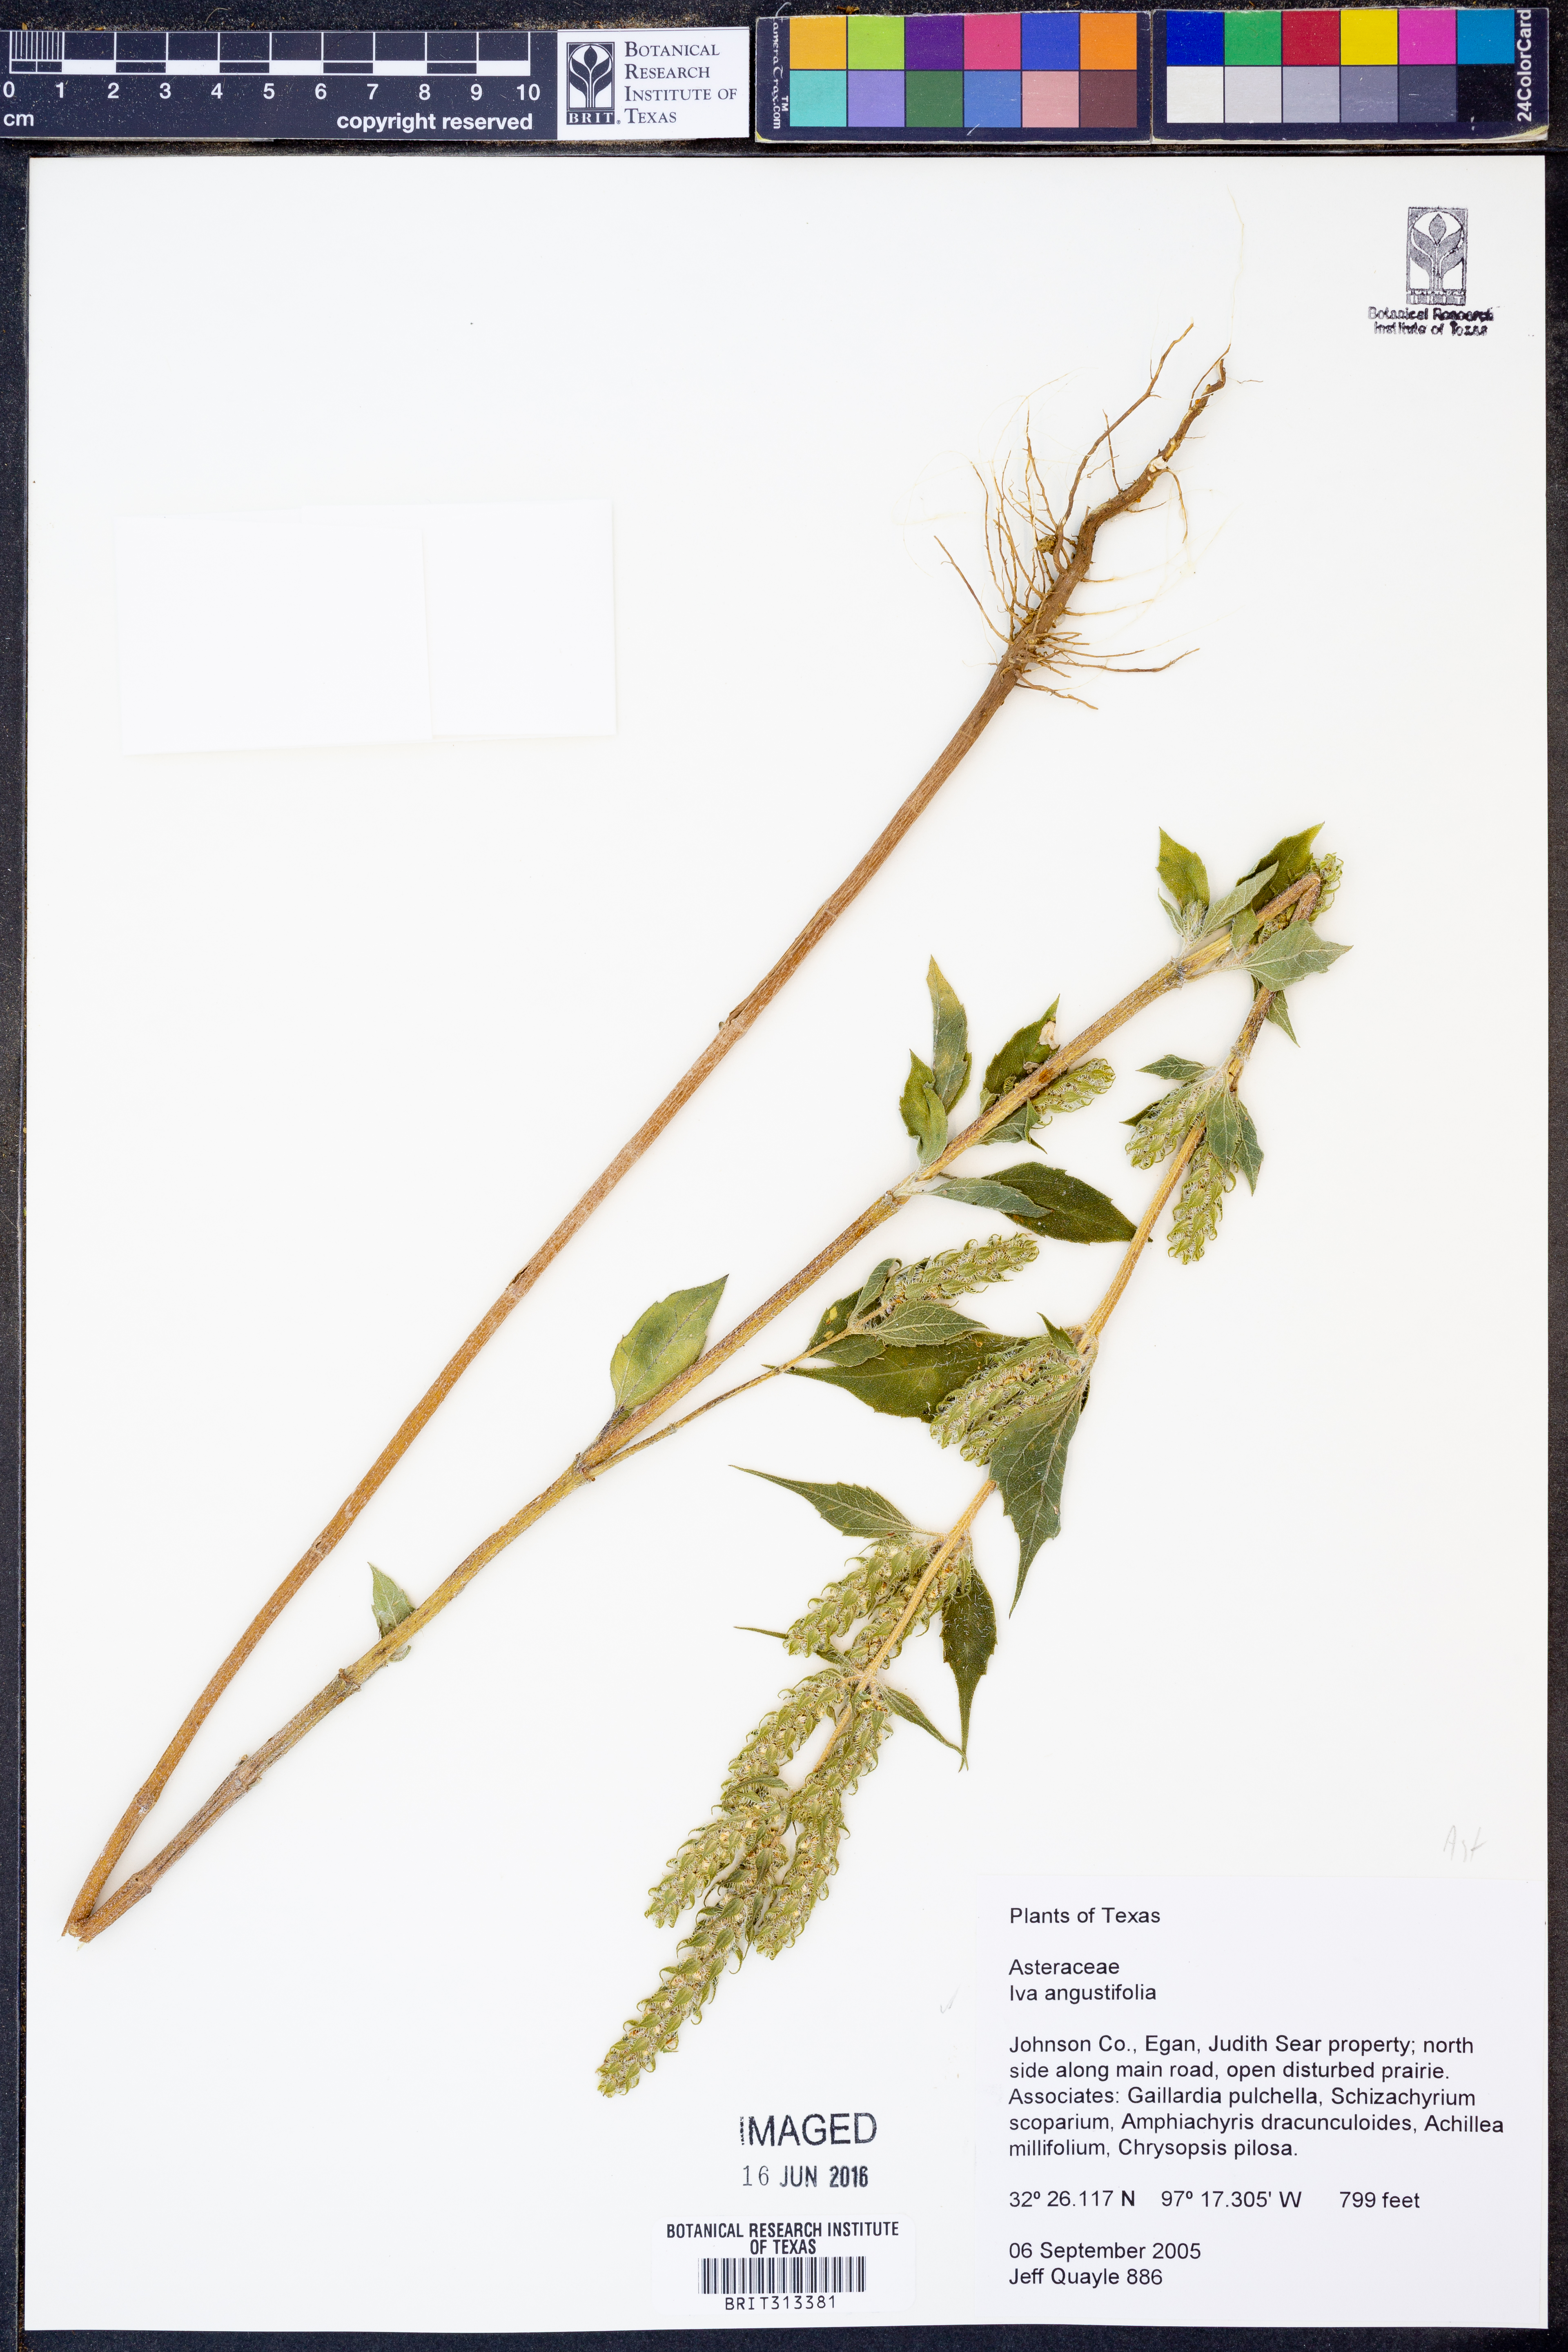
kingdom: Plantae
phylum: Tracheophyta
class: Magnoliopsida
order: Asterales
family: Asteraceae
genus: Iva
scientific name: Iva asperifolia
